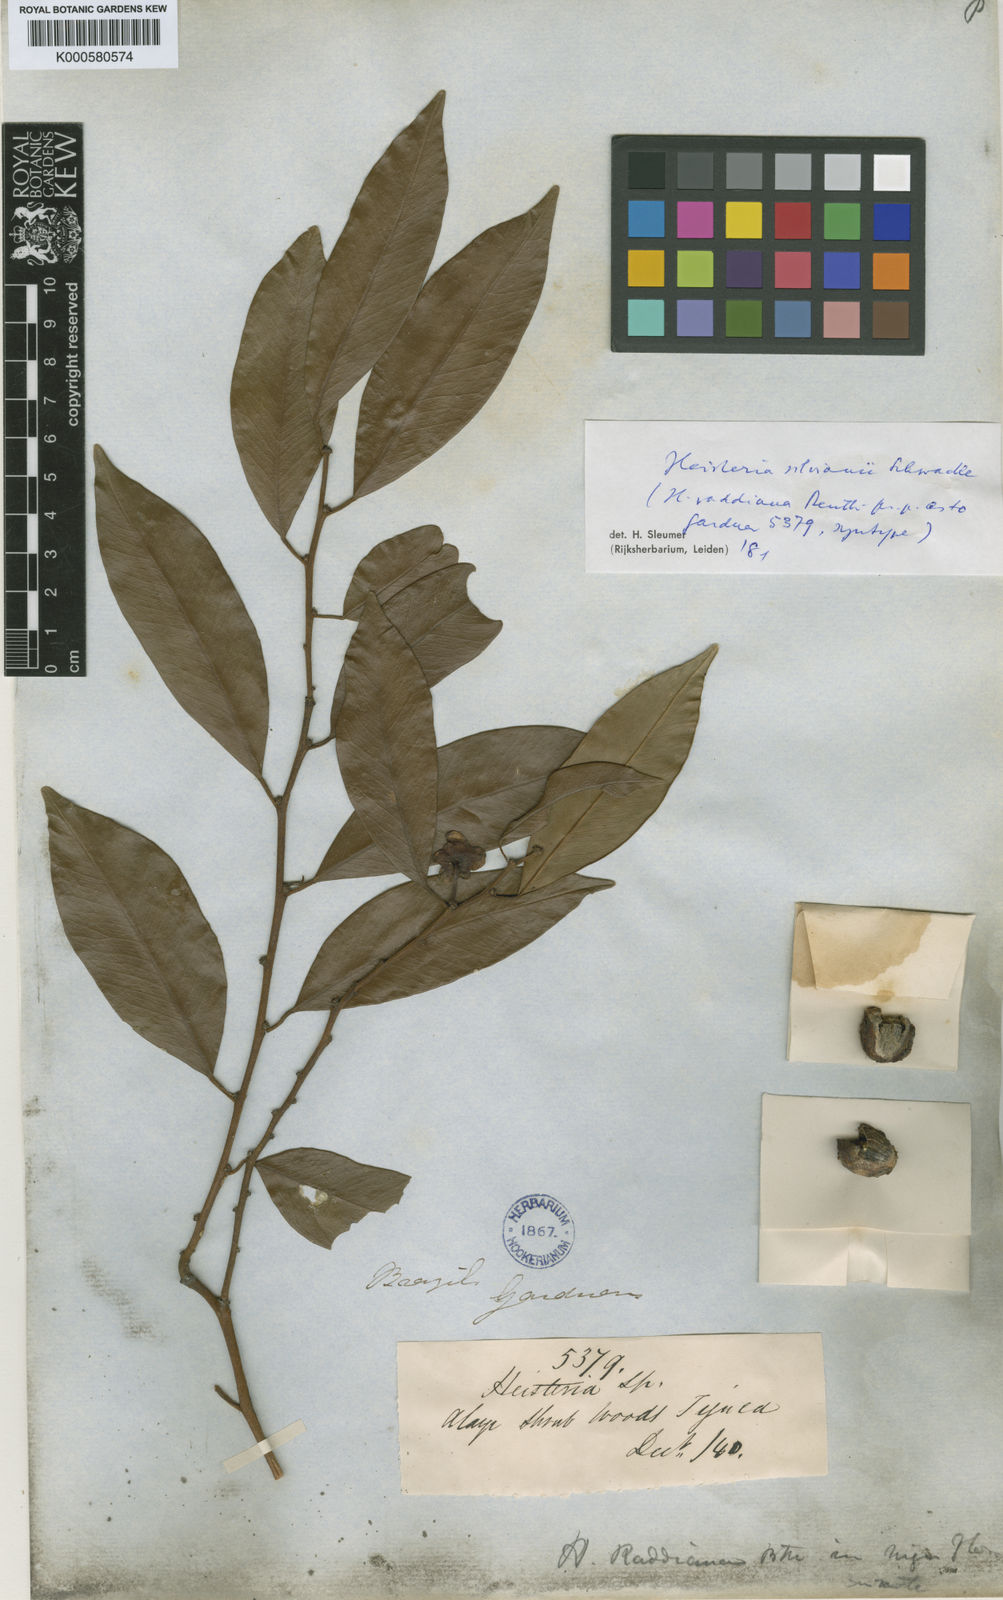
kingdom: Plantae
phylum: Tracheophyta
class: Magnoliopsida
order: Santalales
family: Erythropalaceae
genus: Heisteria
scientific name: Heisteria silvianii
